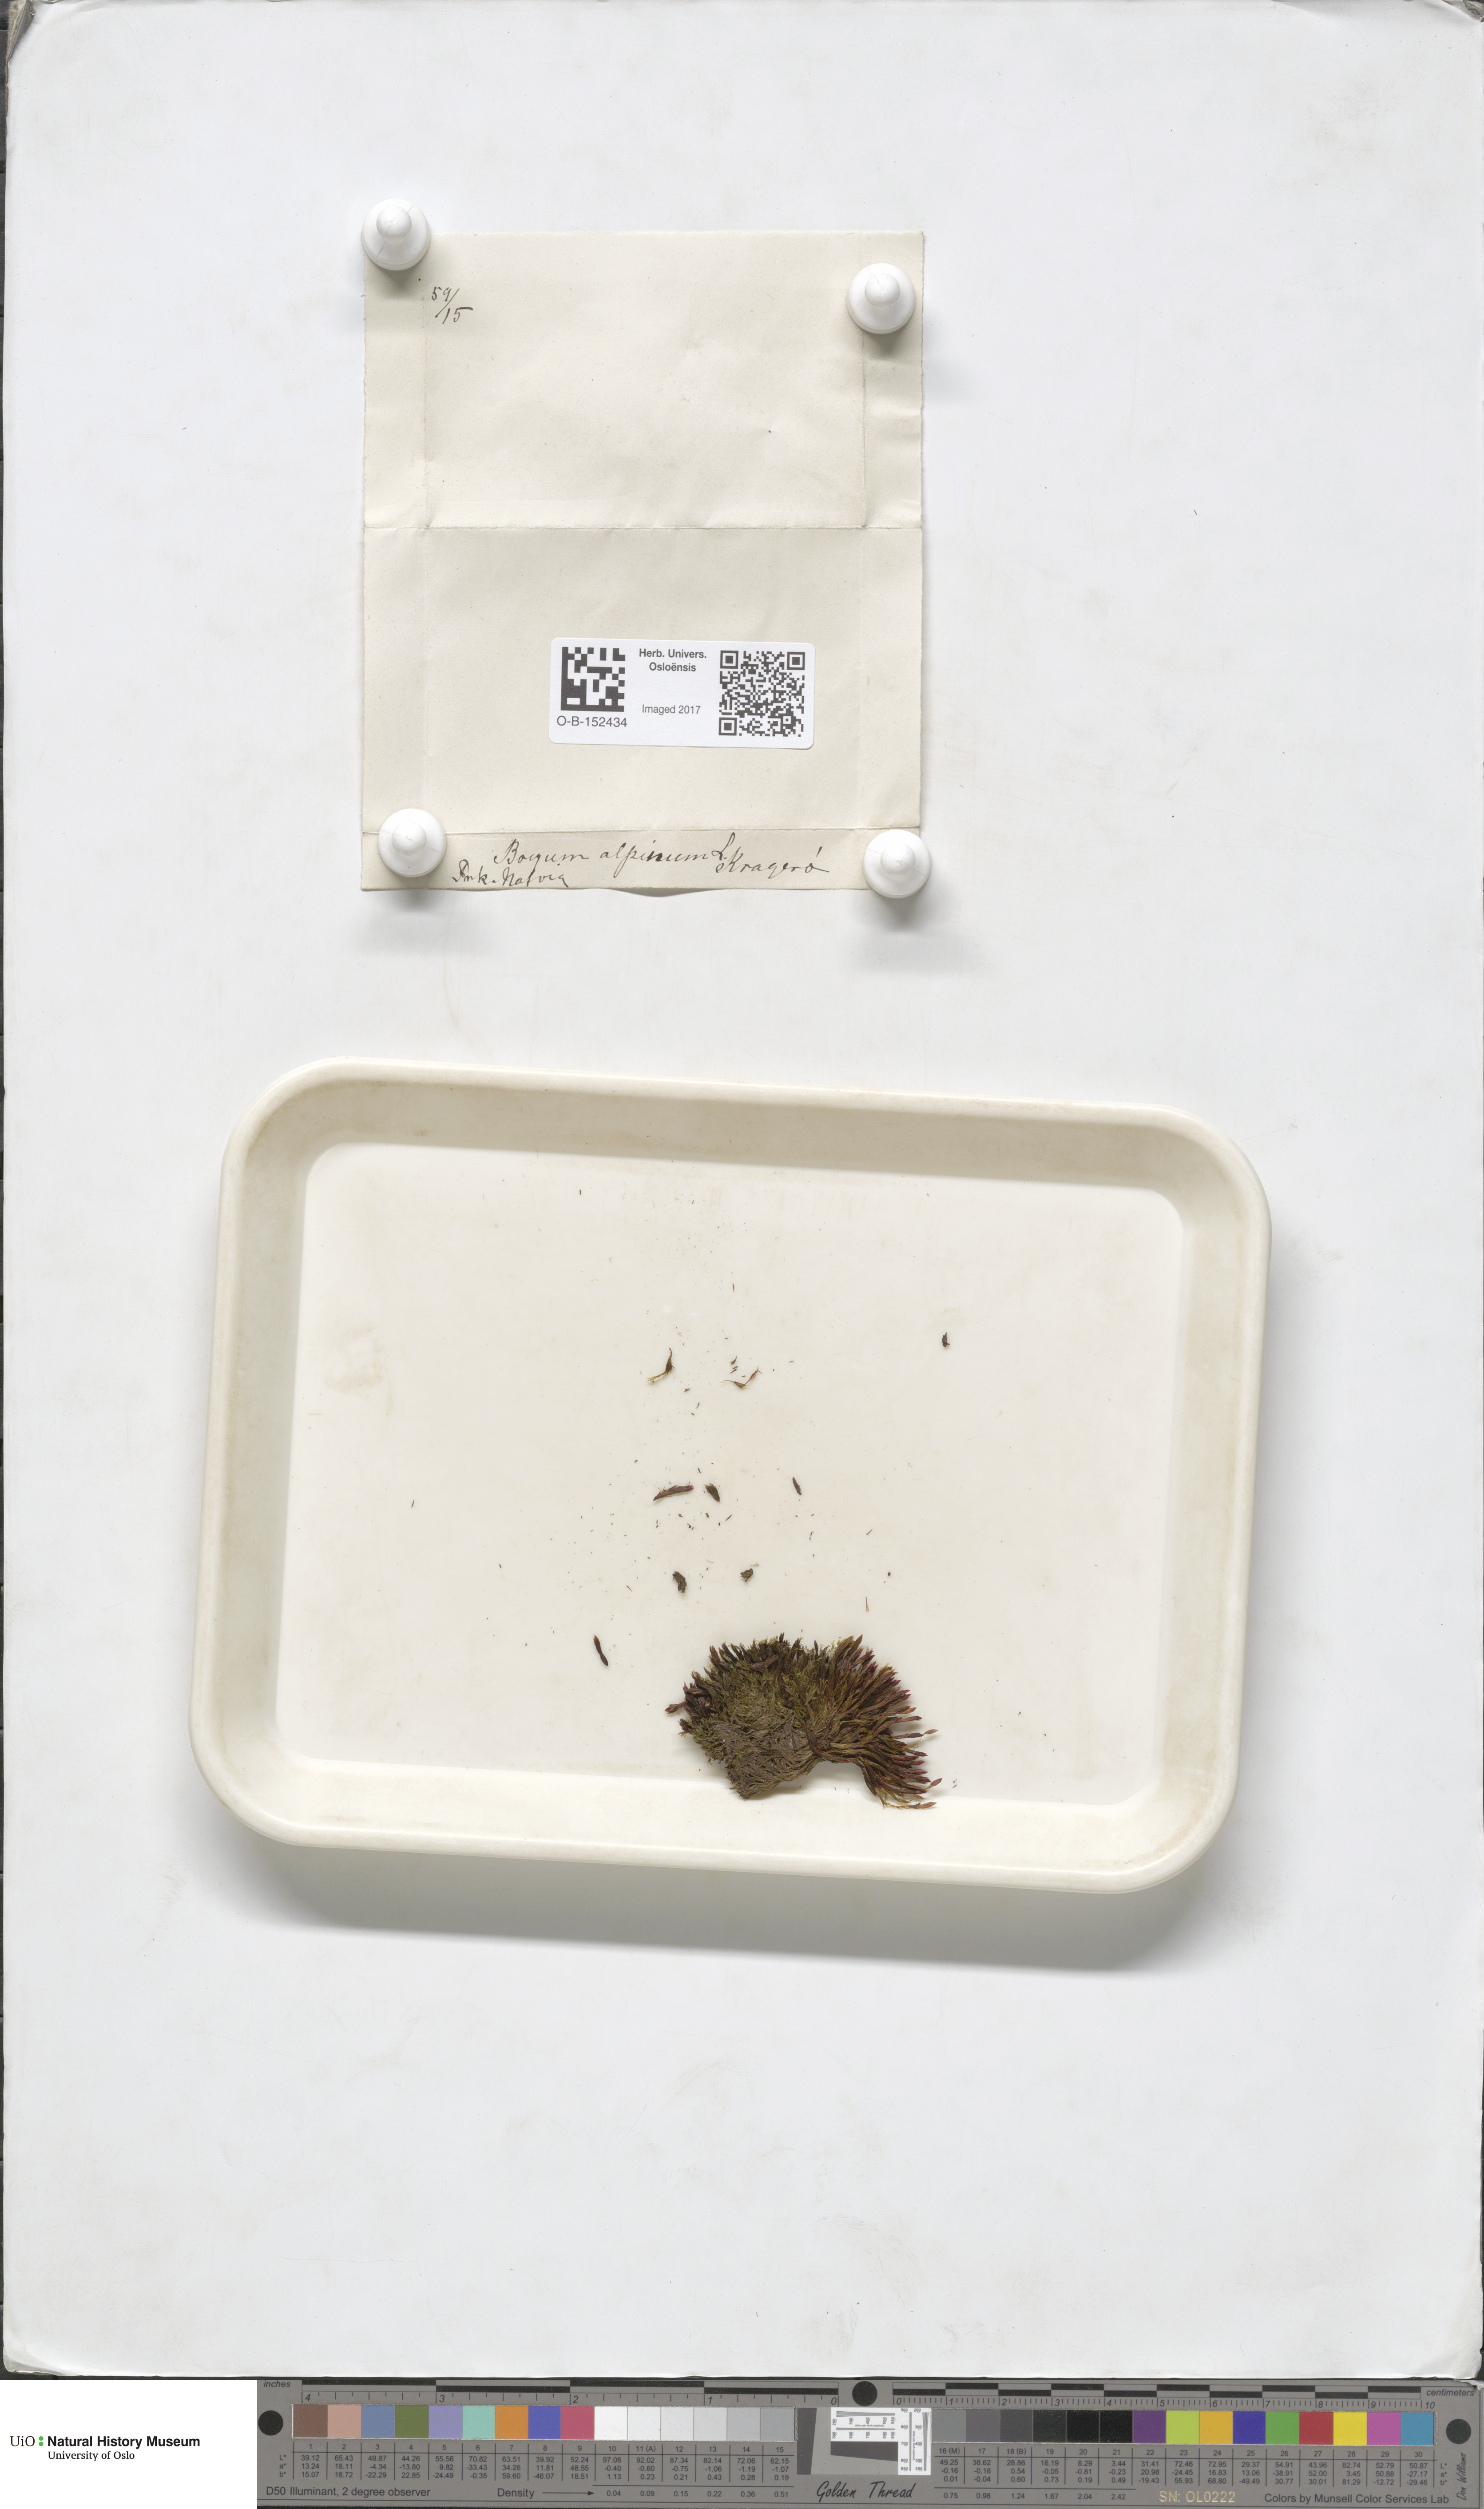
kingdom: Plantae
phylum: Bryophyta
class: Bryopsida
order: Bryales
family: Bryaceae
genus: Imbribryum
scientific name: Imbribryum alpinum
